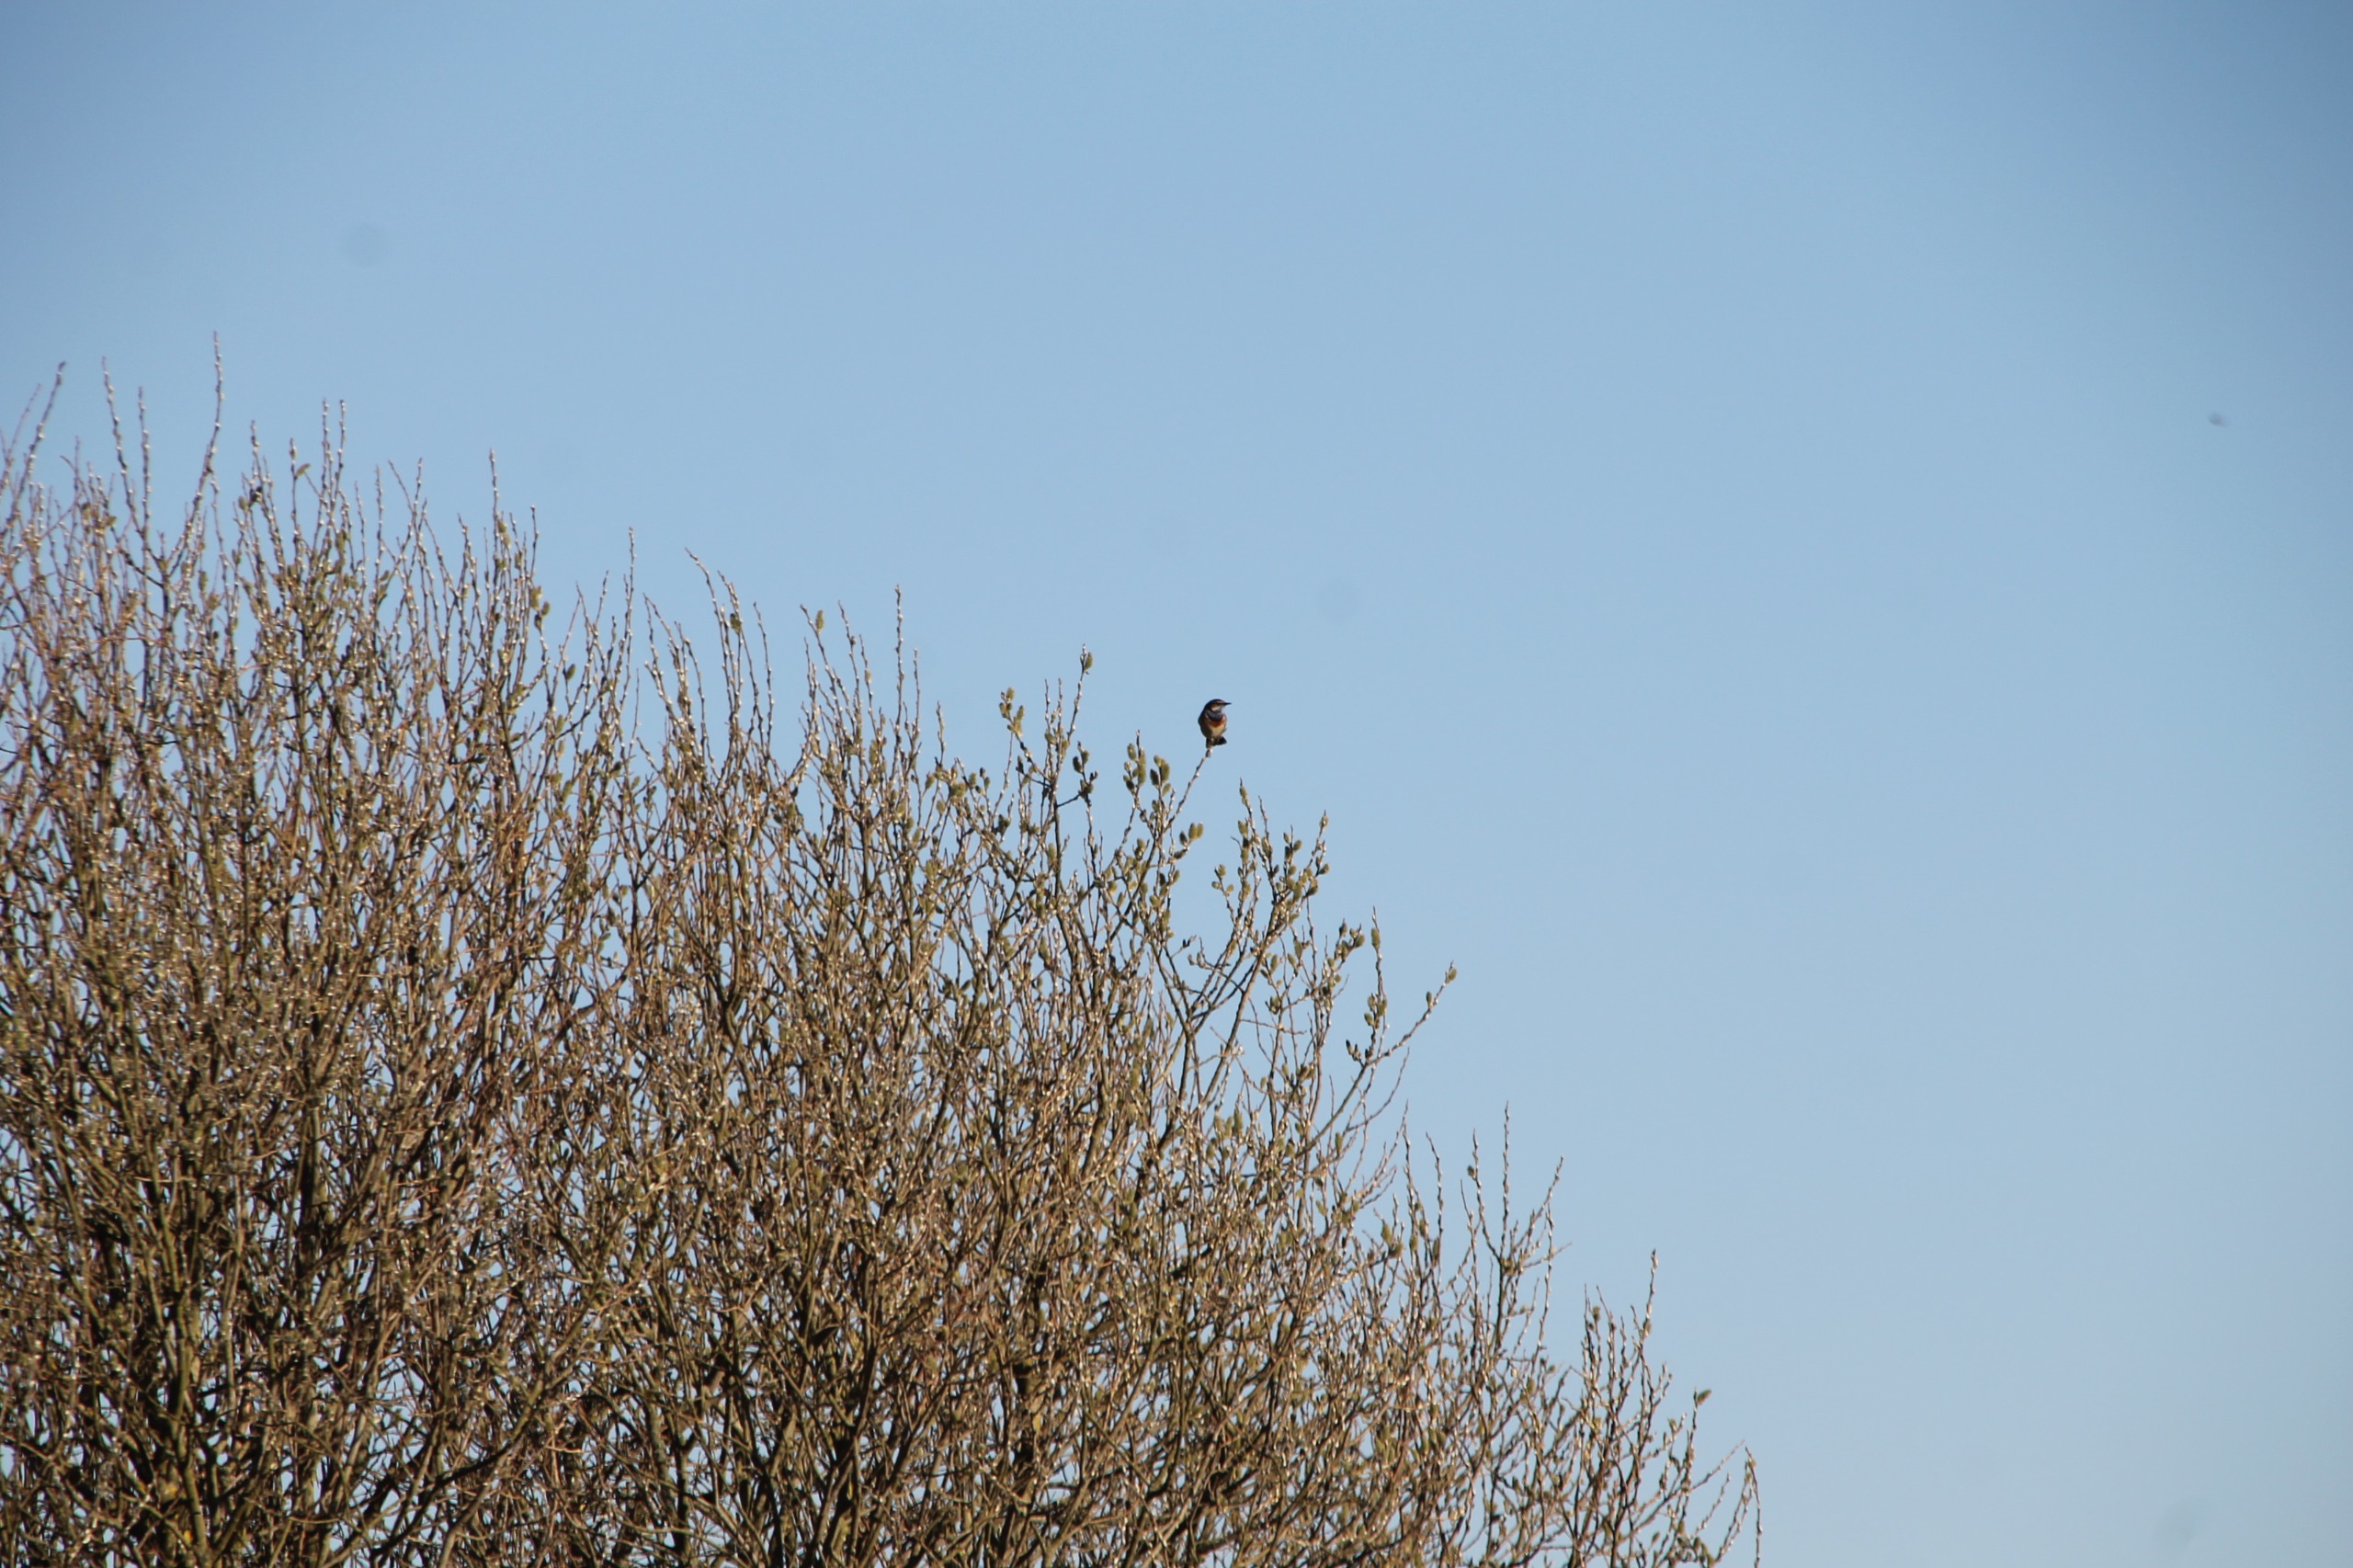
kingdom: Animalia
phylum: Chordata
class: Aves
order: Passeriformes
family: Muscicapidae
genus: Luscinia
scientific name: Luscinia svecica
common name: Blåhals
